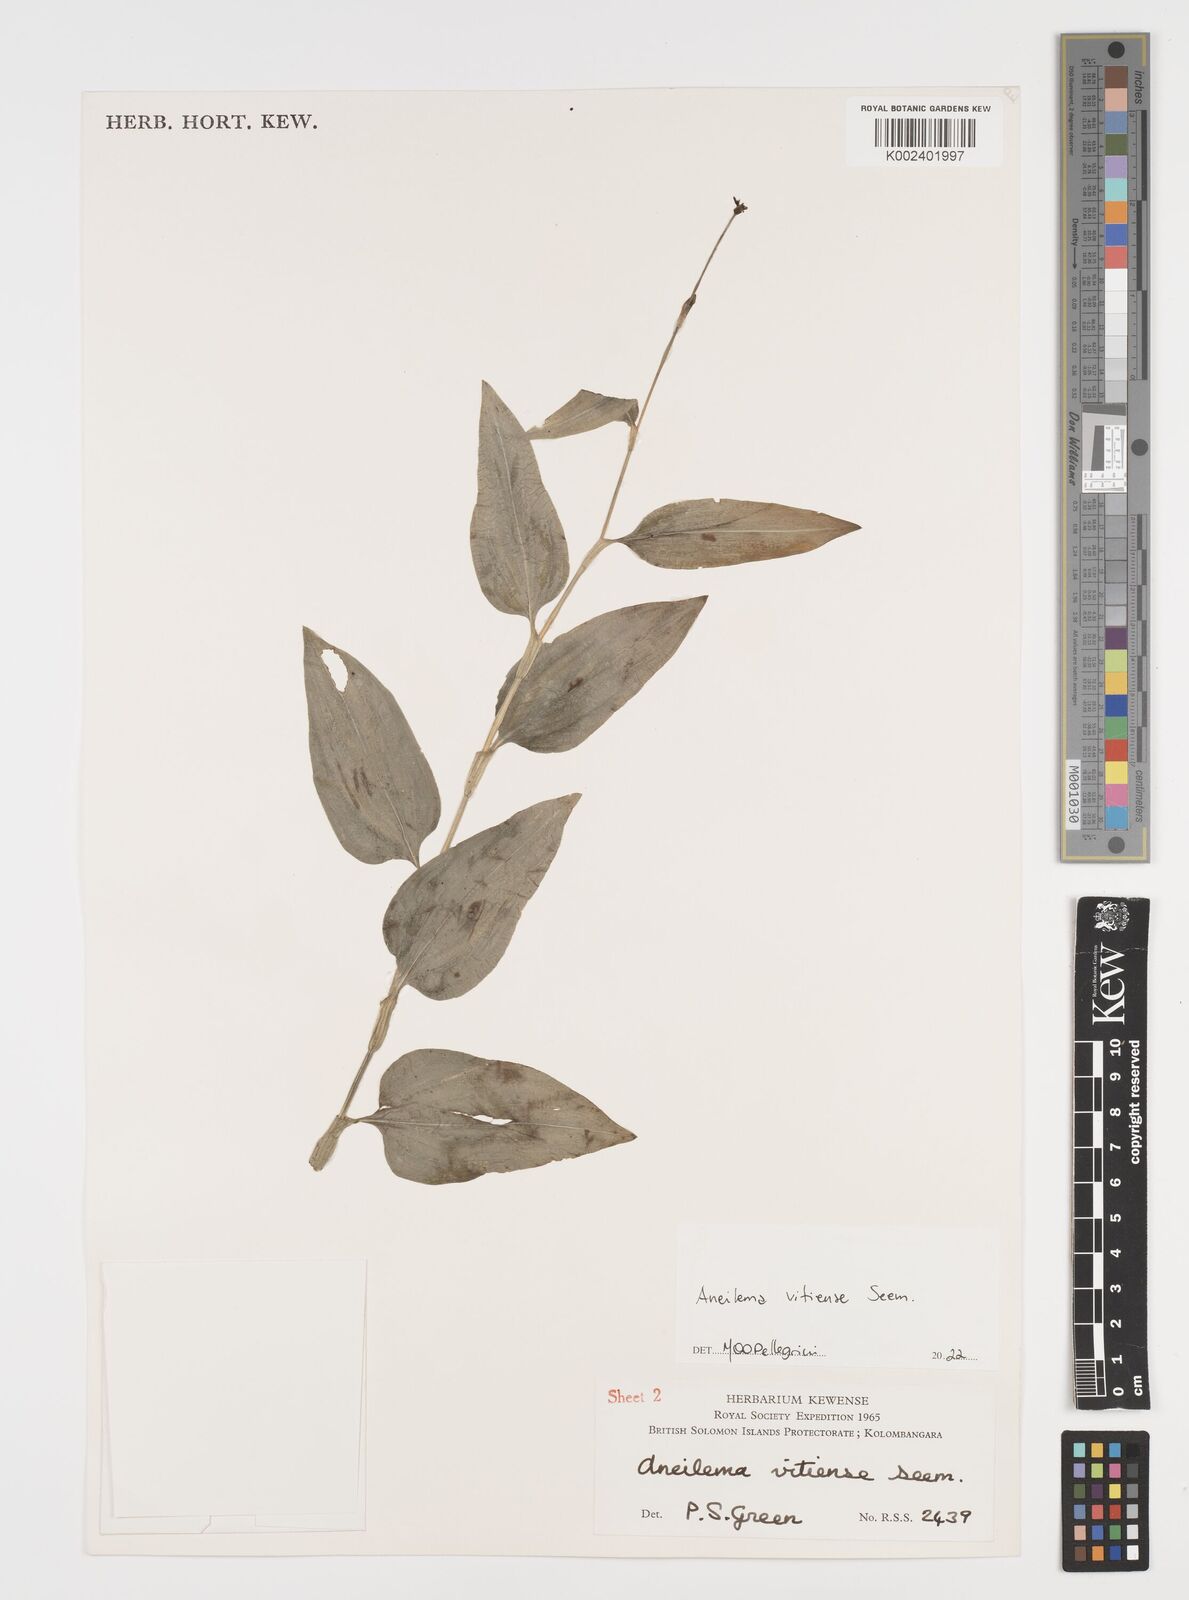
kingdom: Plantae
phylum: Tracheophyta
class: Liliopsida
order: Commelinales
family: Commelinaceae
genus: Rhopalephora
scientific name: Rhopalephora vitiensis
